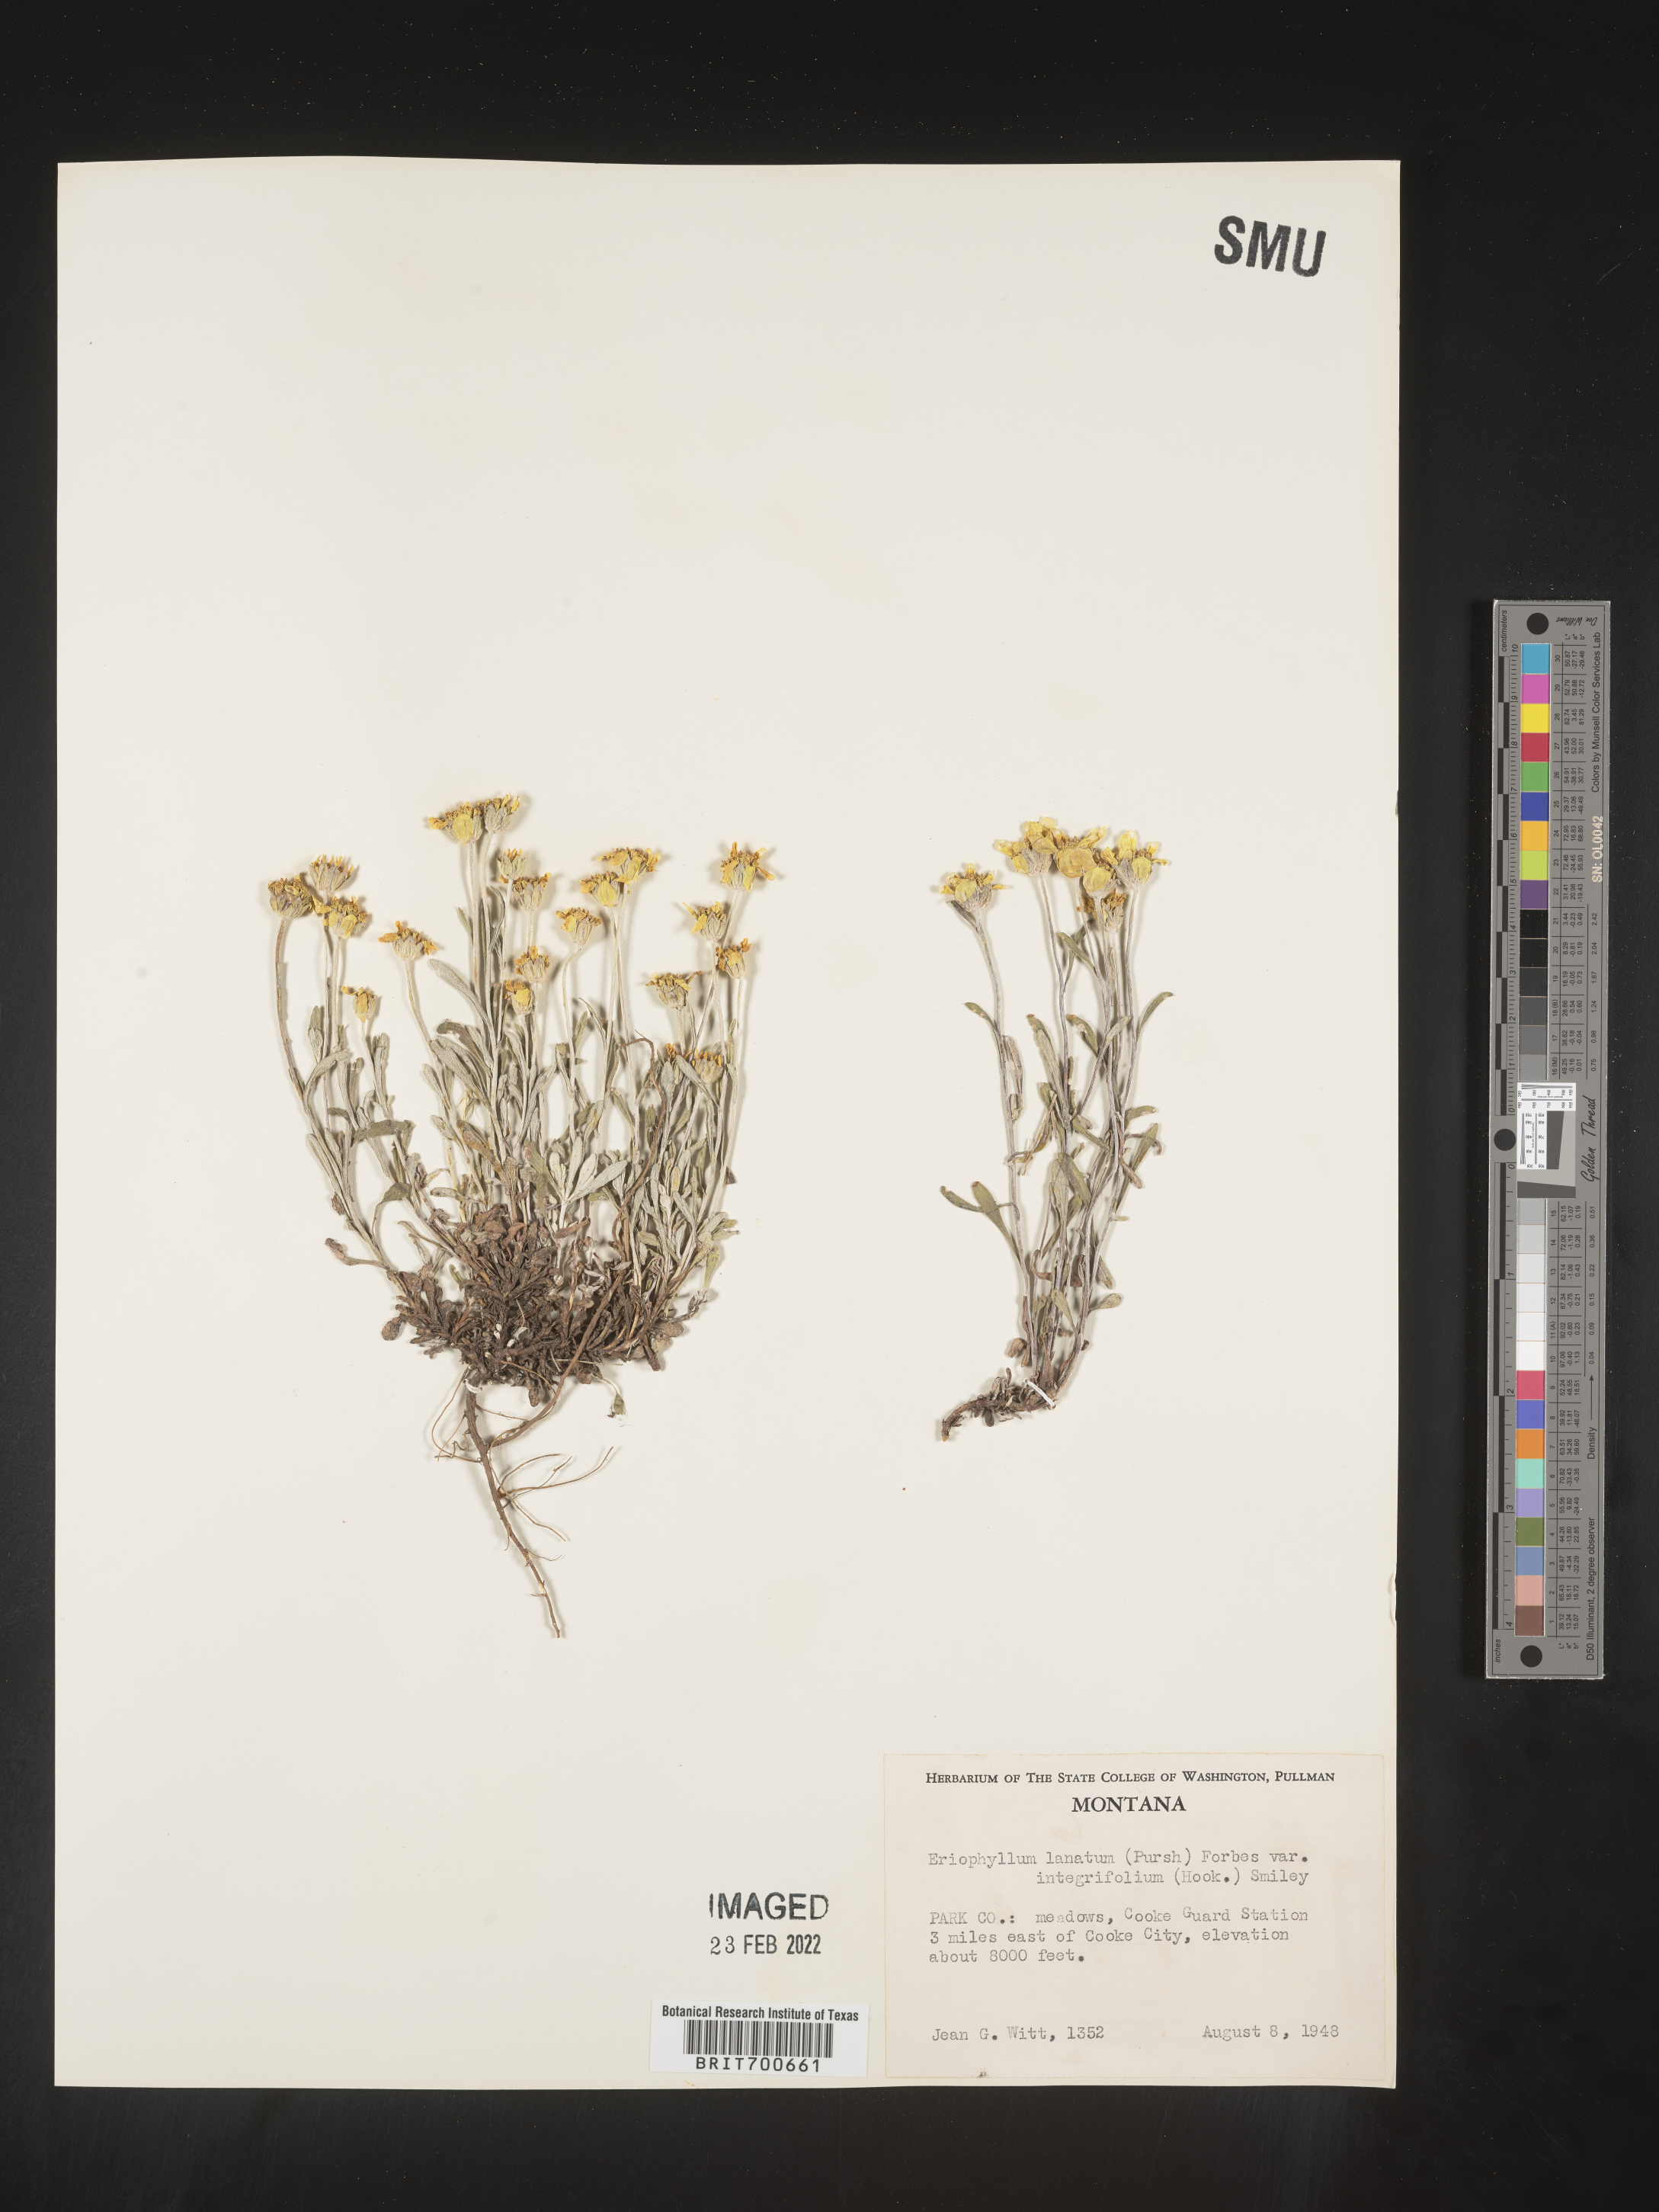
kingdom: Plantae
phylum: Tracheophyta
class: Magnoliopsida
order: Asterales
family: Asteraceae
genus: Eriophyllum
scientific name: Eriophyllum lanatum
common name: Common woolly-sunflower
